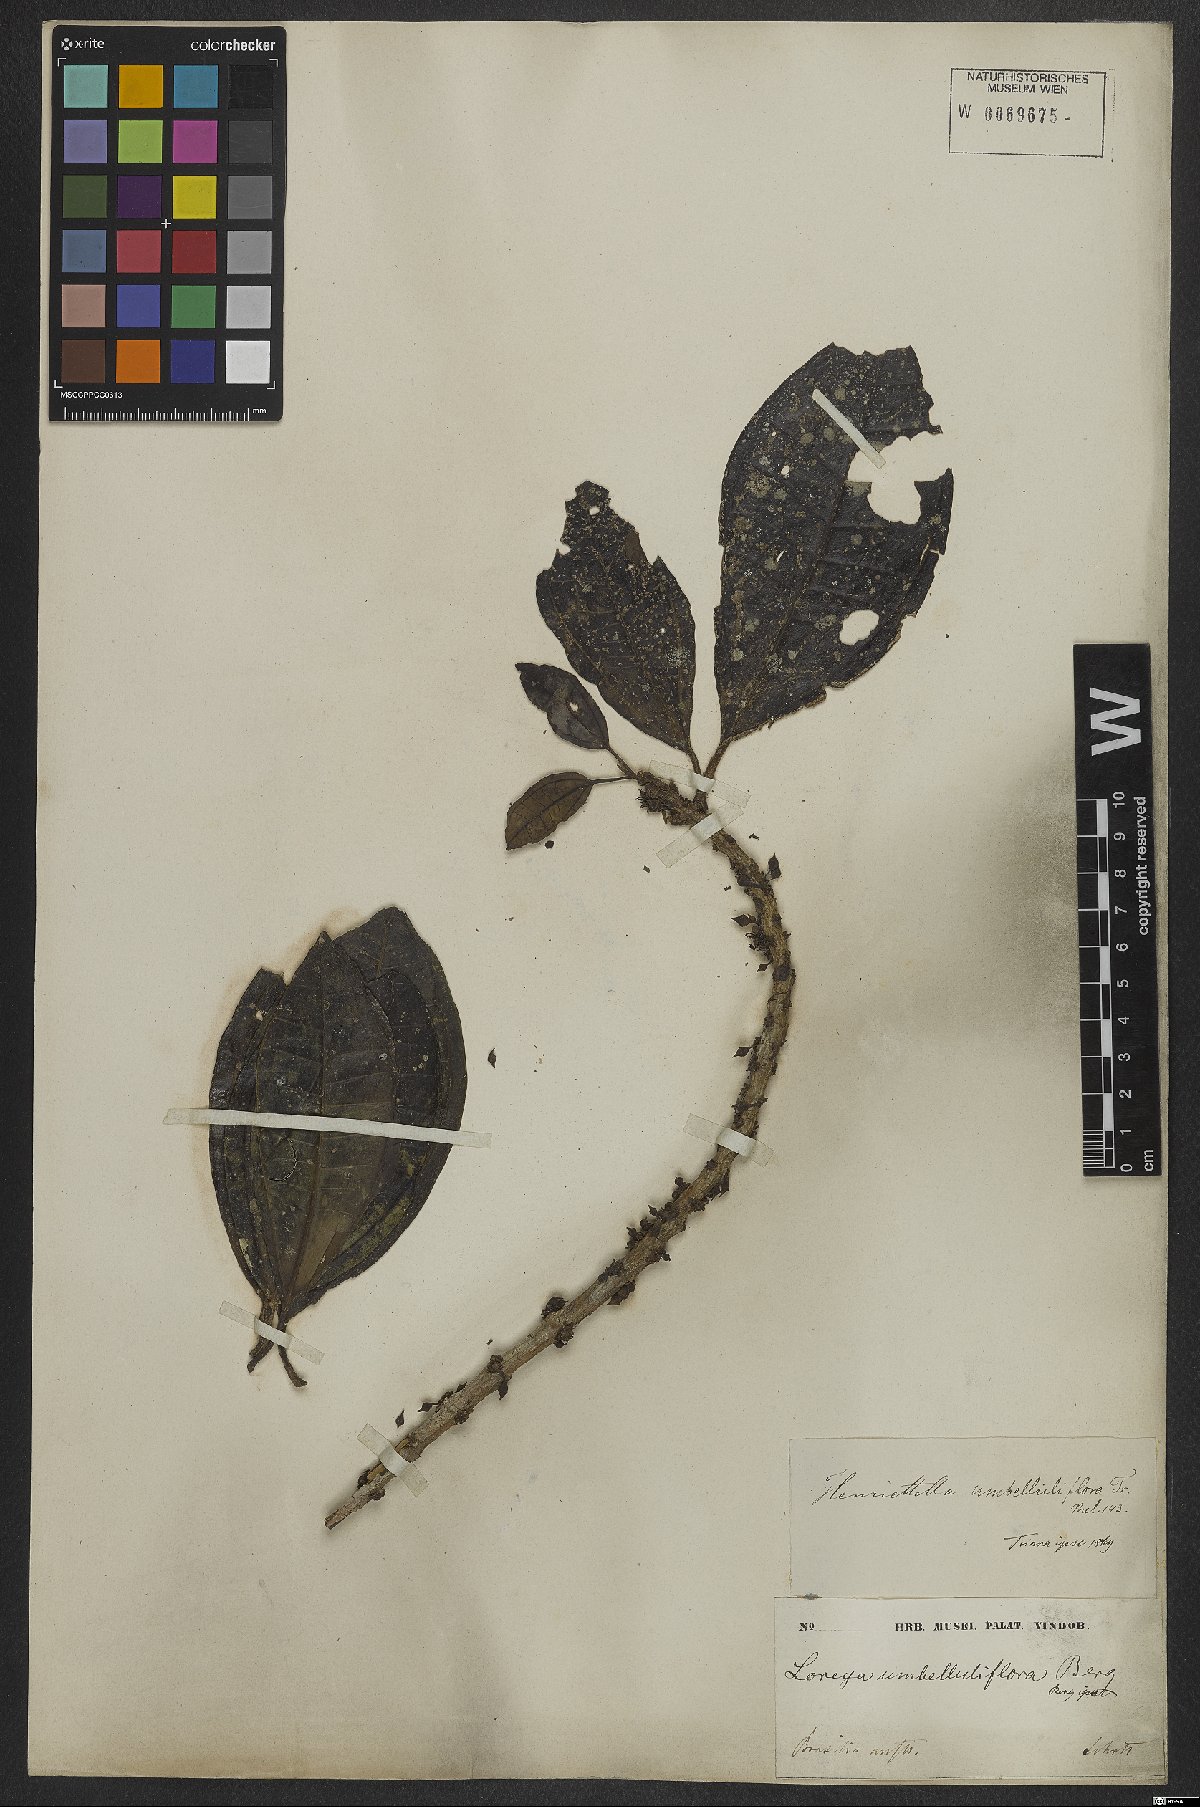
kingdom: Plantae
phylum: Tracheophyta
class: Magnoliopsida
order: Myrtales
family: Melastomataceae
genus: Henriettea
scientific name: Henriettea glabra
